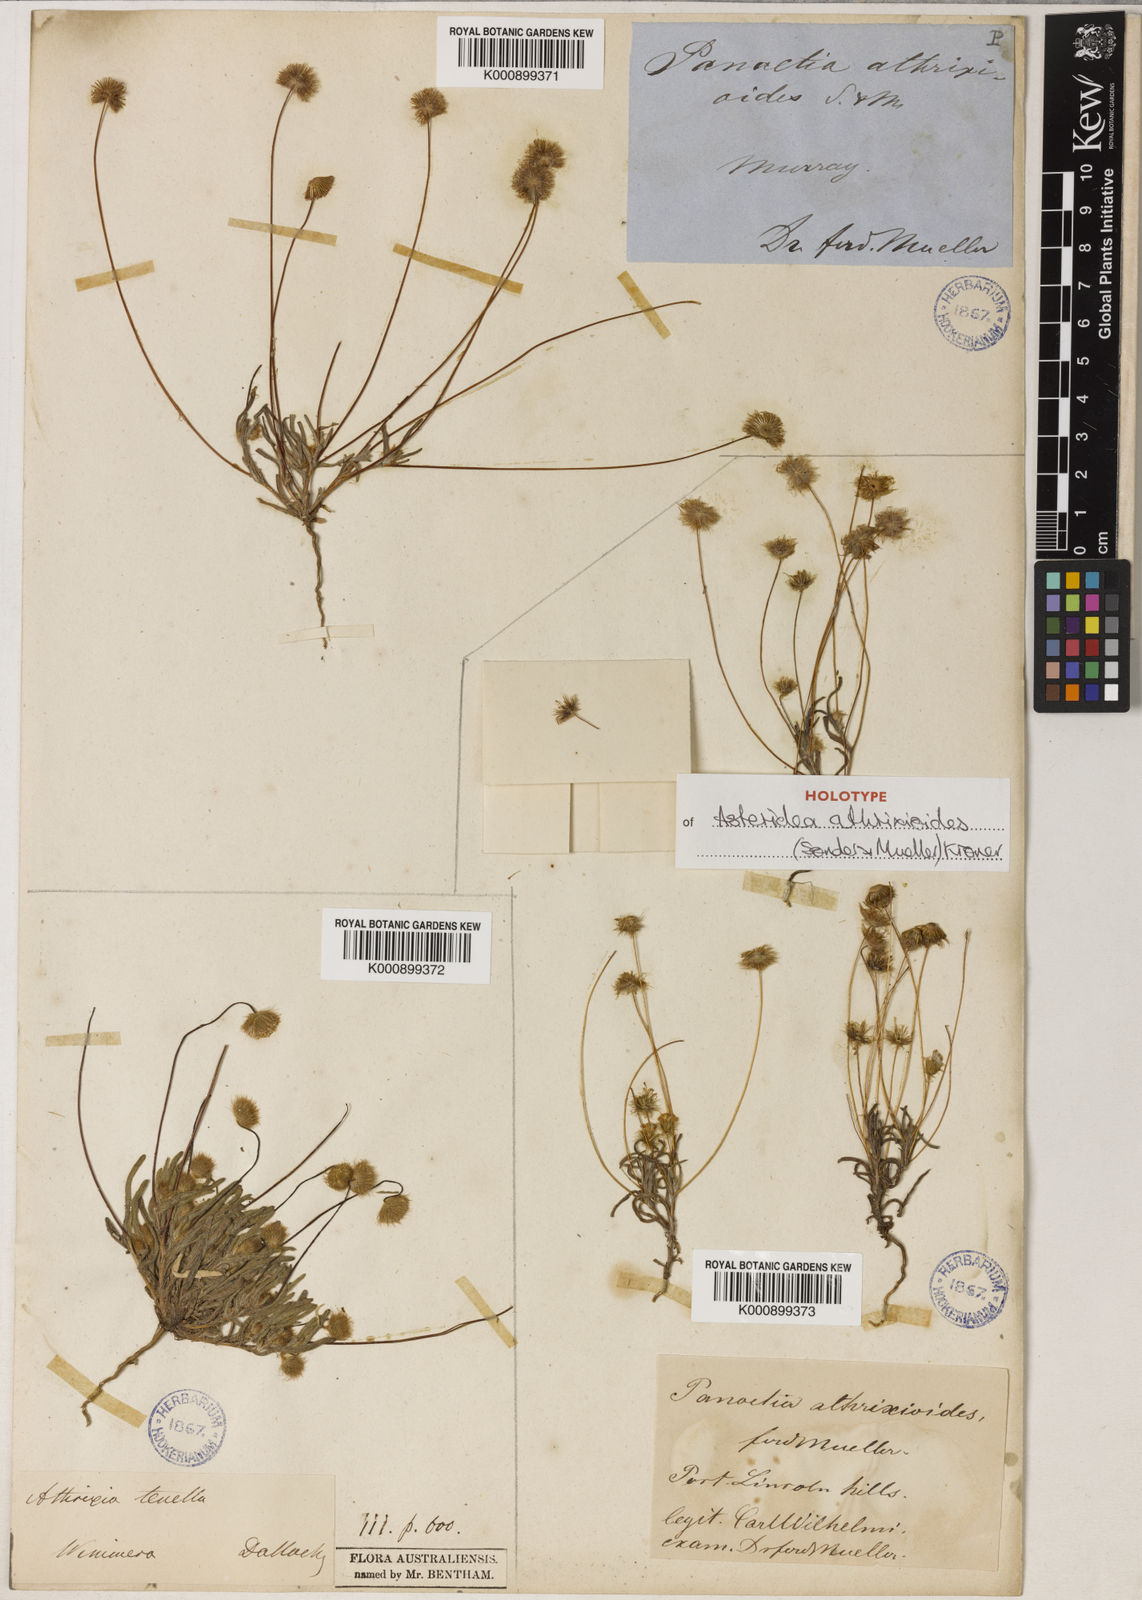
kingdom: Plantae
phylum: Tracheophyta
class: Magnoliopsida
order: Asterales
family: Asteraceae
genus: Asteridea
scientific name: Asteridea athrixioides
